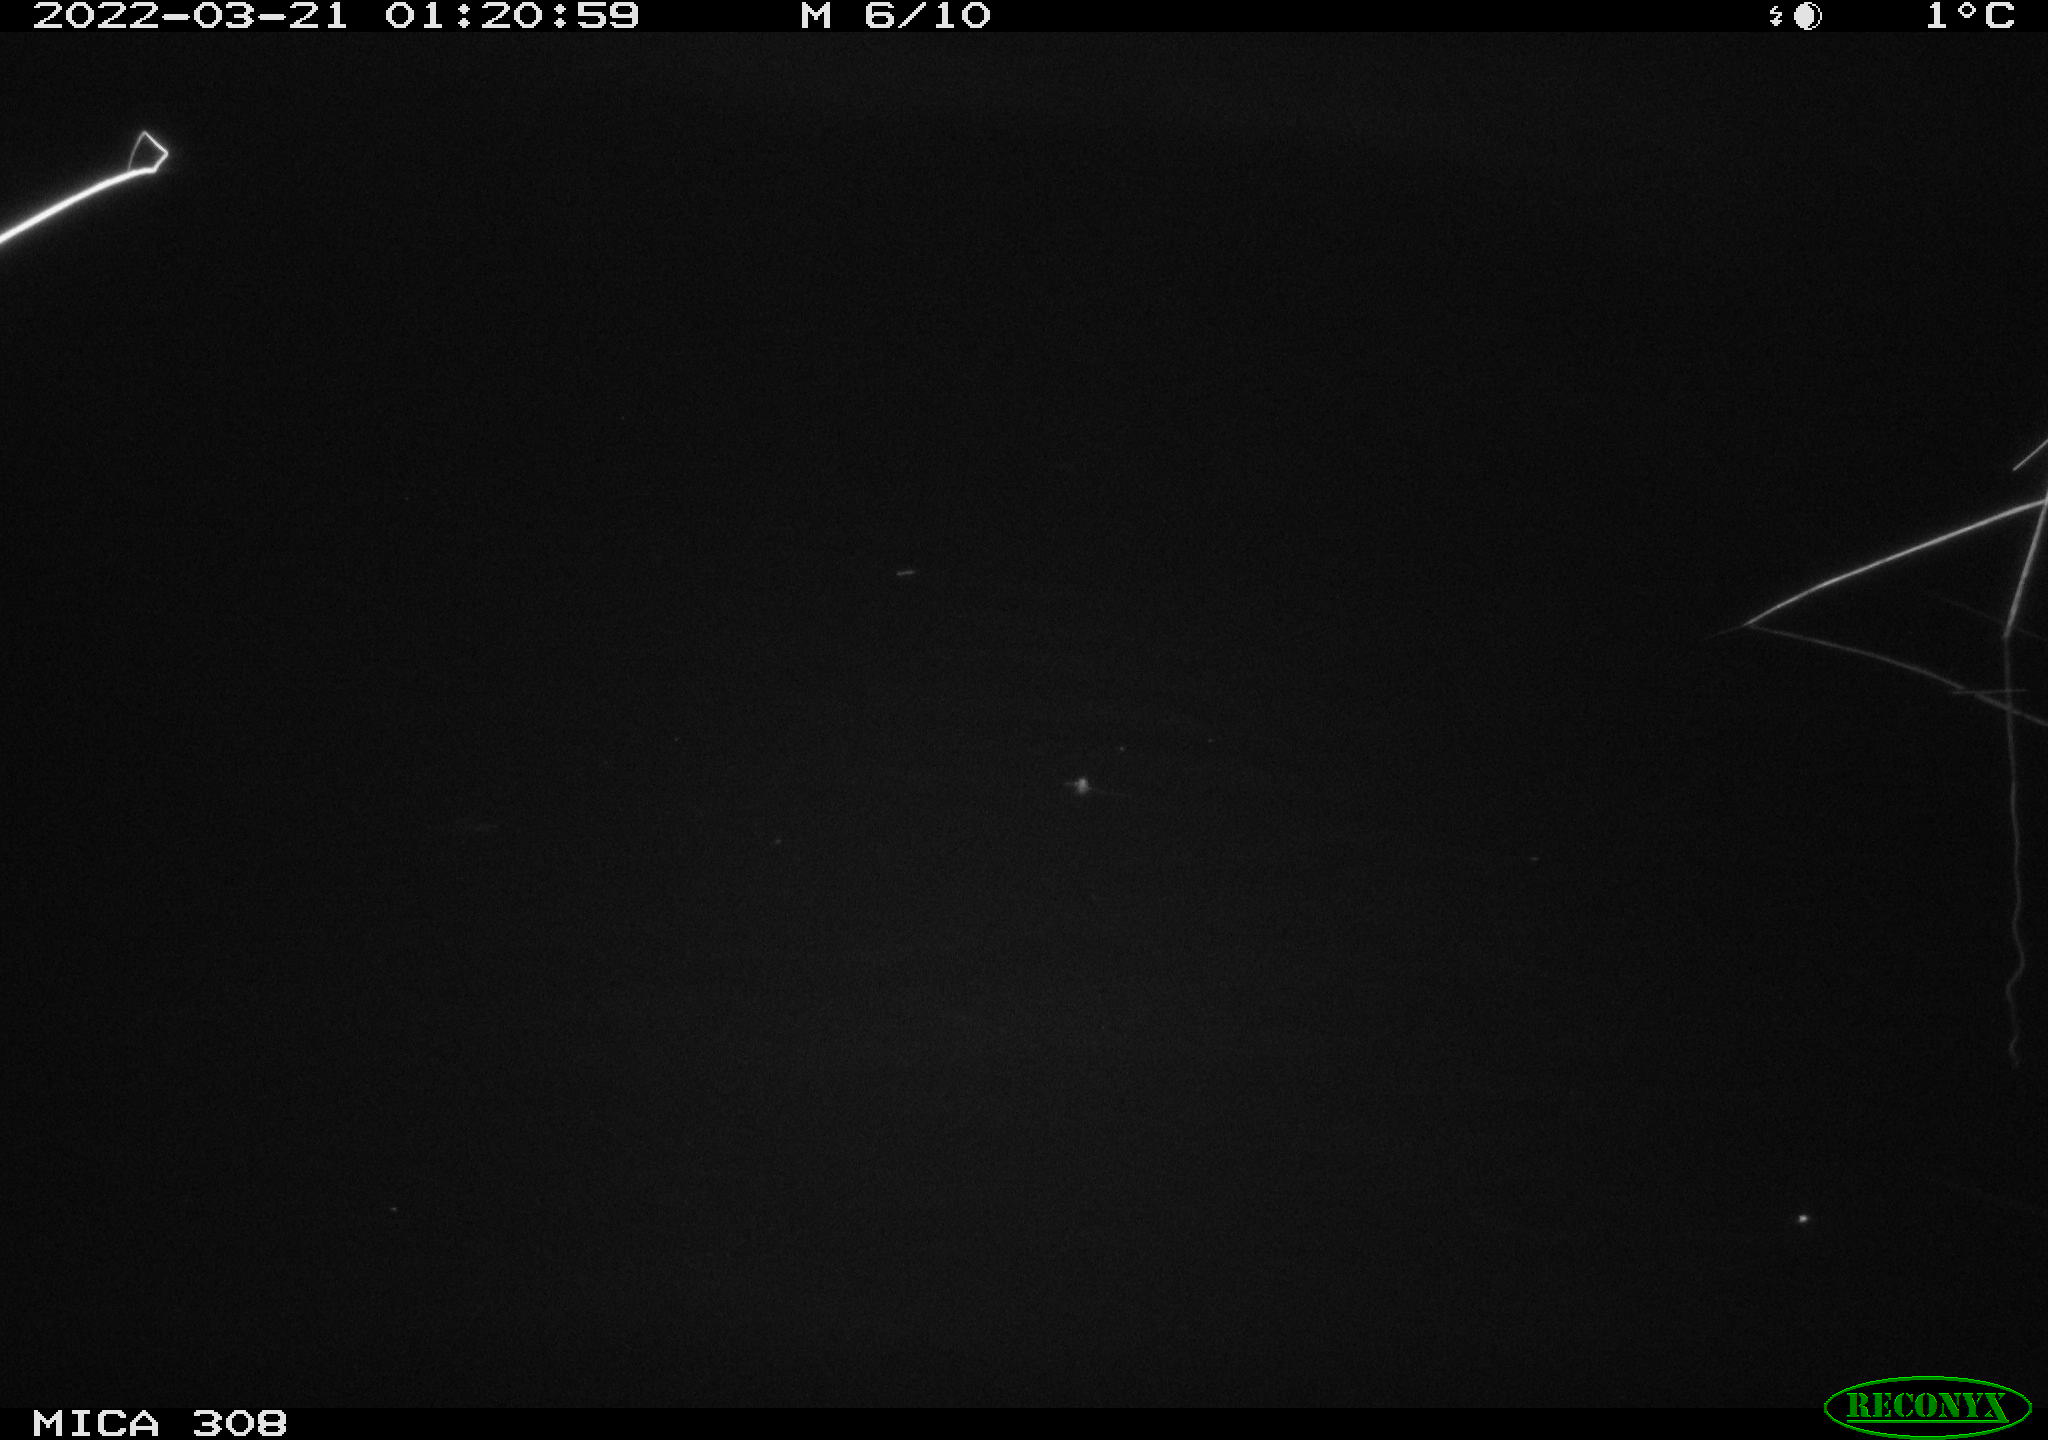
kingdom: Animalia
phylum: Chordata
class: Mammalia
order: Rodentia
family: Cricetidae
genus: Ondatra
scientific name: Ondatra zibethicus
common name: Muskrat
